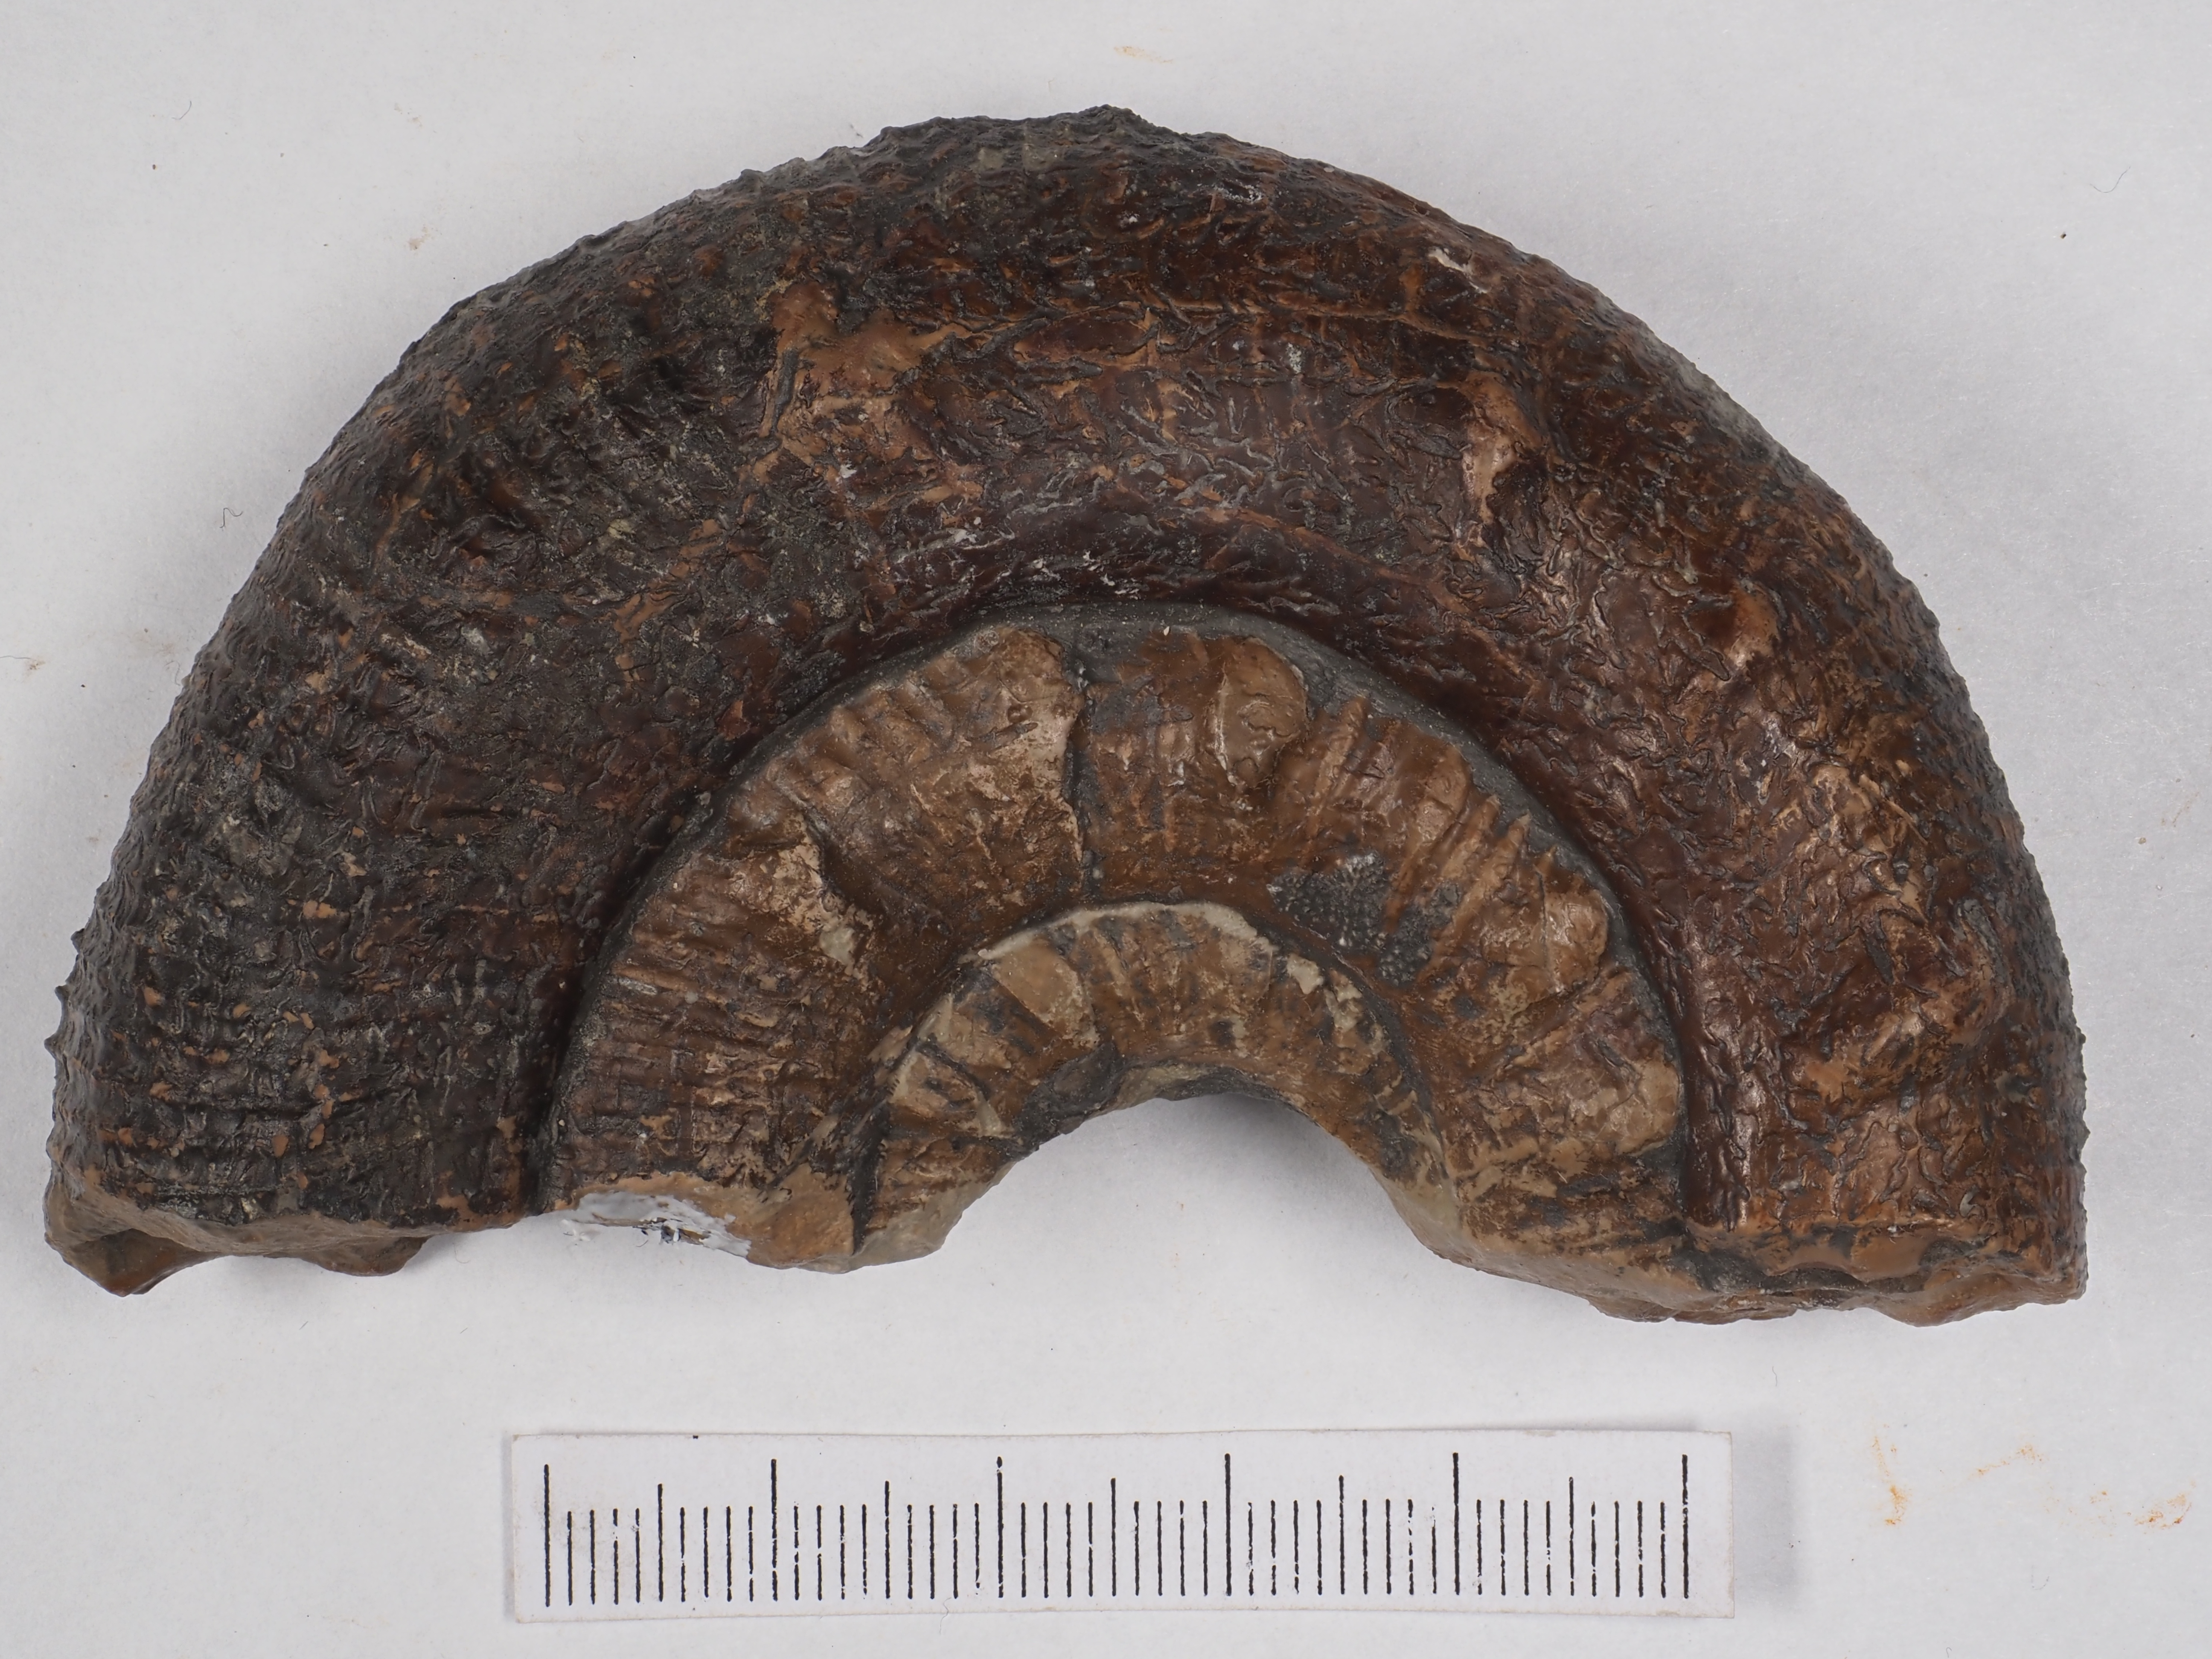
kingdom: Animalia
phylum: Mollusca
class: Cephalopoda
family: Dactylioceratidae
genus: Prodactylioceras
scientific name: Prodactylioceras davoei
